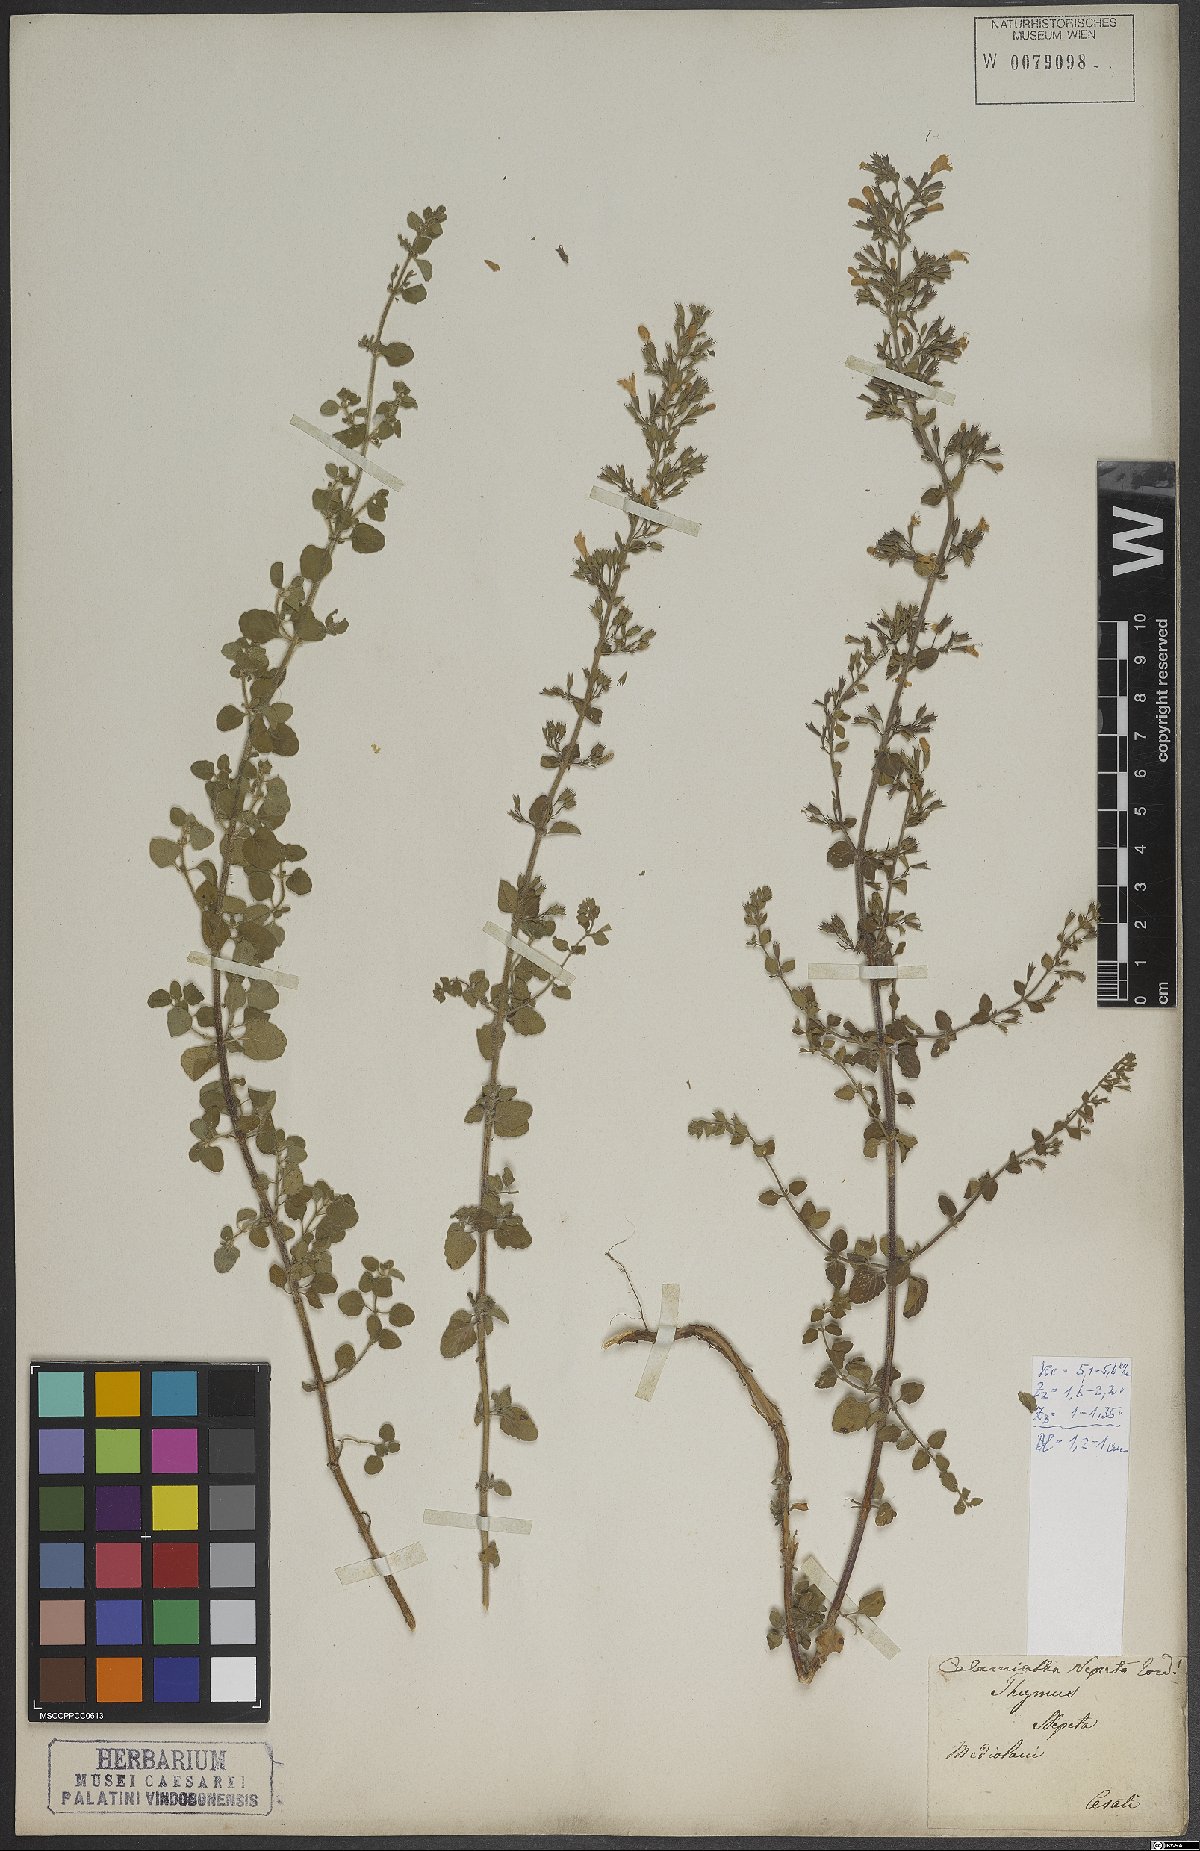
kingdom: Plantae
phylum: Tracheophyta
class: Magnoliopsida
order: Lamiales
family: Lamiaceae
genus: Clinopodium
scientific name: Clinopodium nepeta
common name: Lesser calamint
